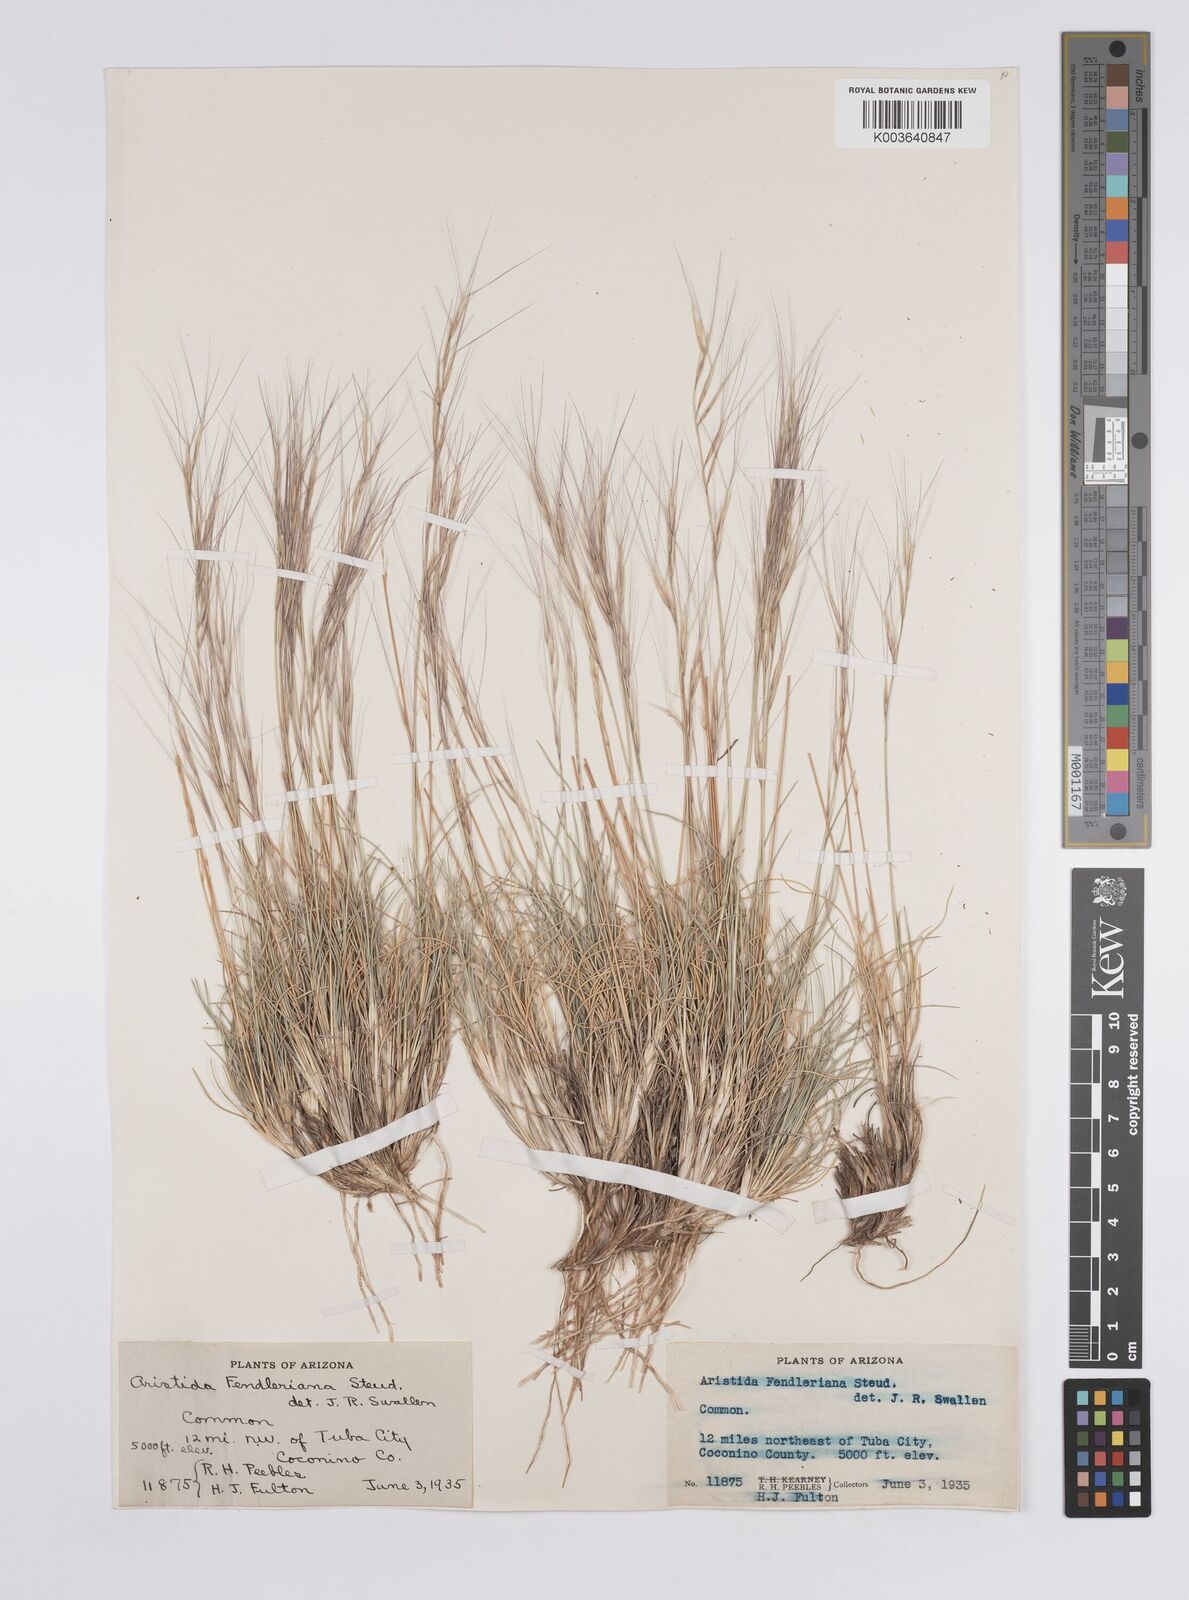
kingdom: Plantae
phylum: Tracheophyta
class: Liliopsida
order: Poales
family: Poaceae
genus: Aristida
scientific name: Aristida purpurea
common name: Purple threeawn
